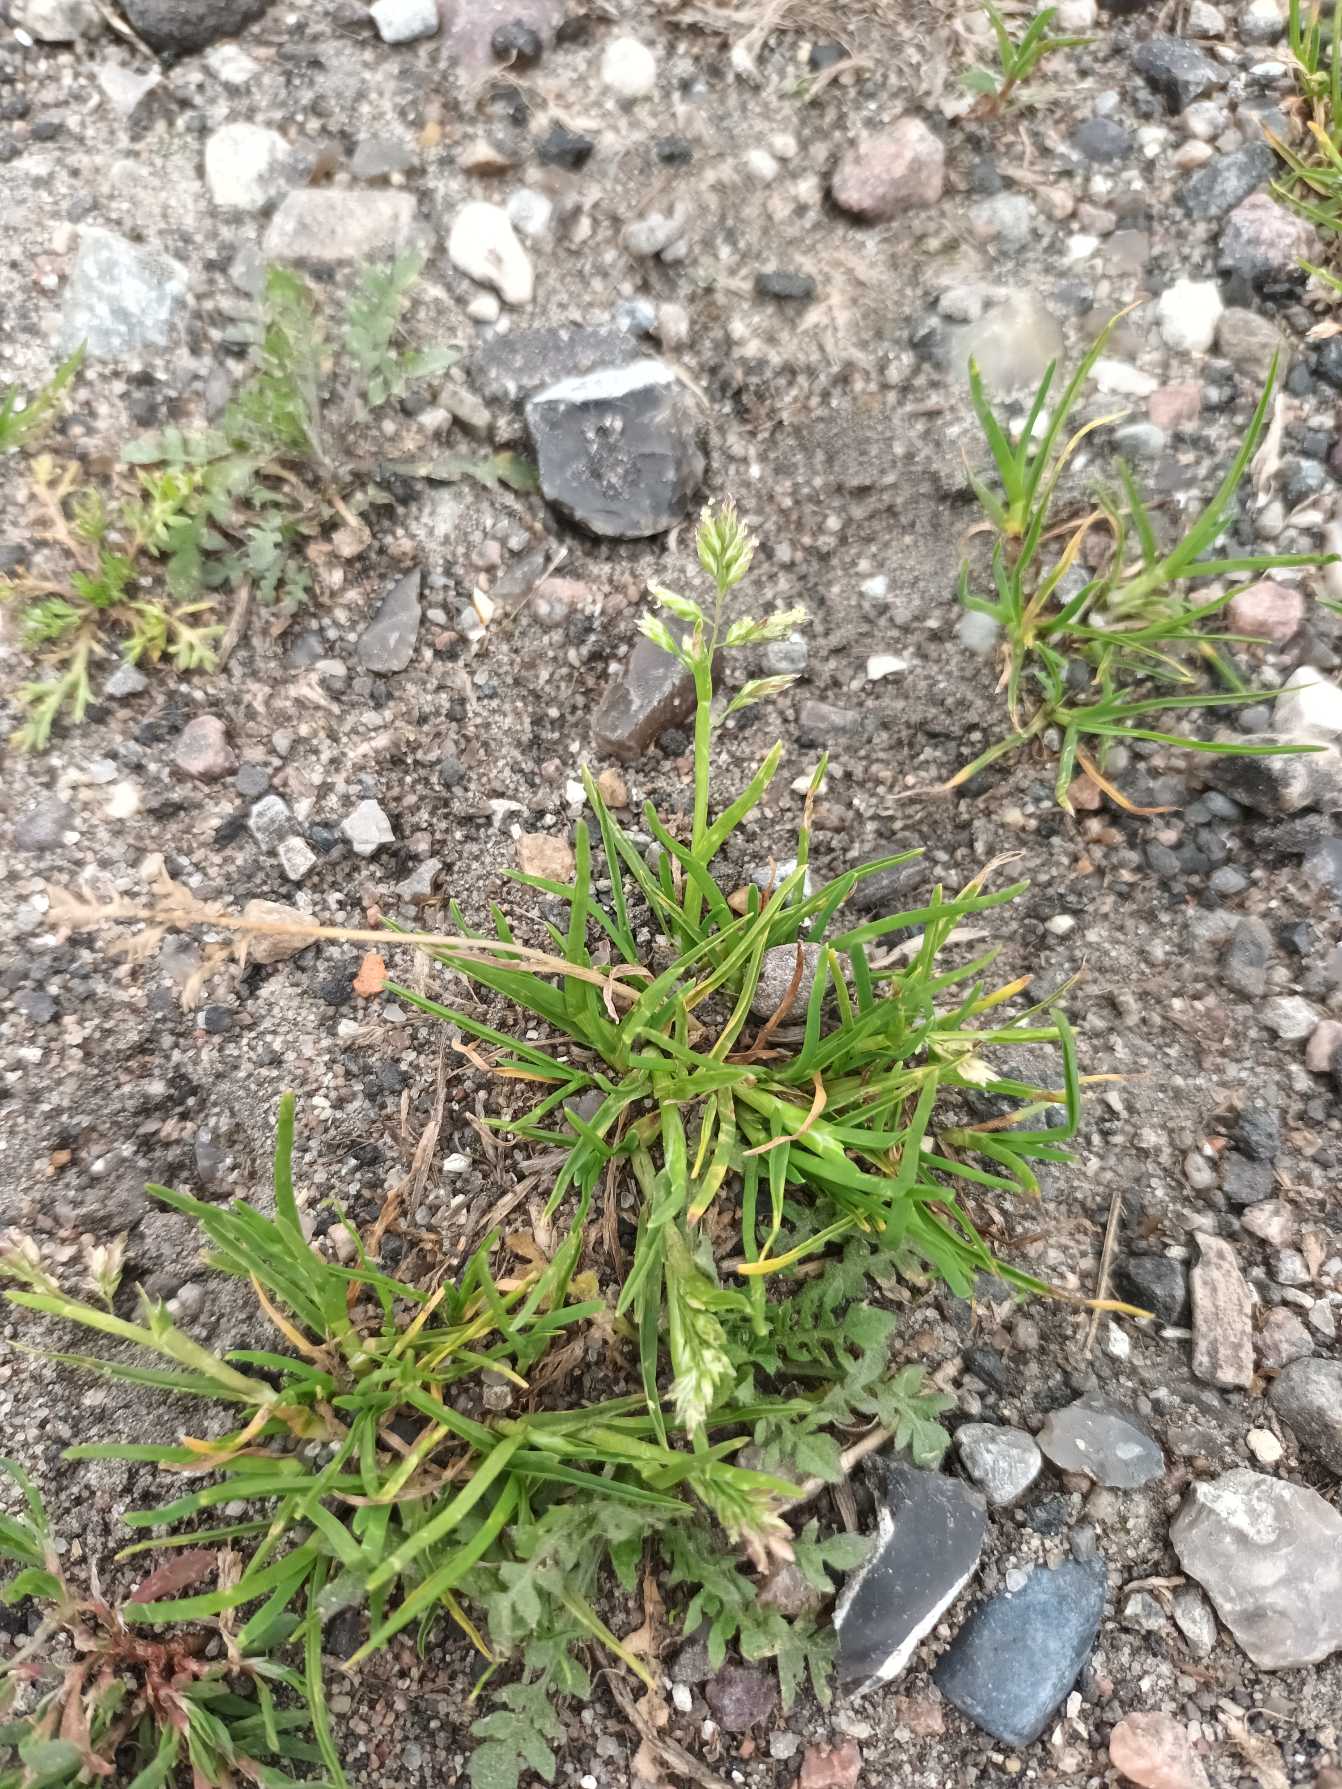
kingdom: Plantae
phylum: Tracheophyta
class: Liliopsida
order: Poales
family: Poaceae
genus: Poa
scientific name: Poa annua
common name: Enårig rapgræs
